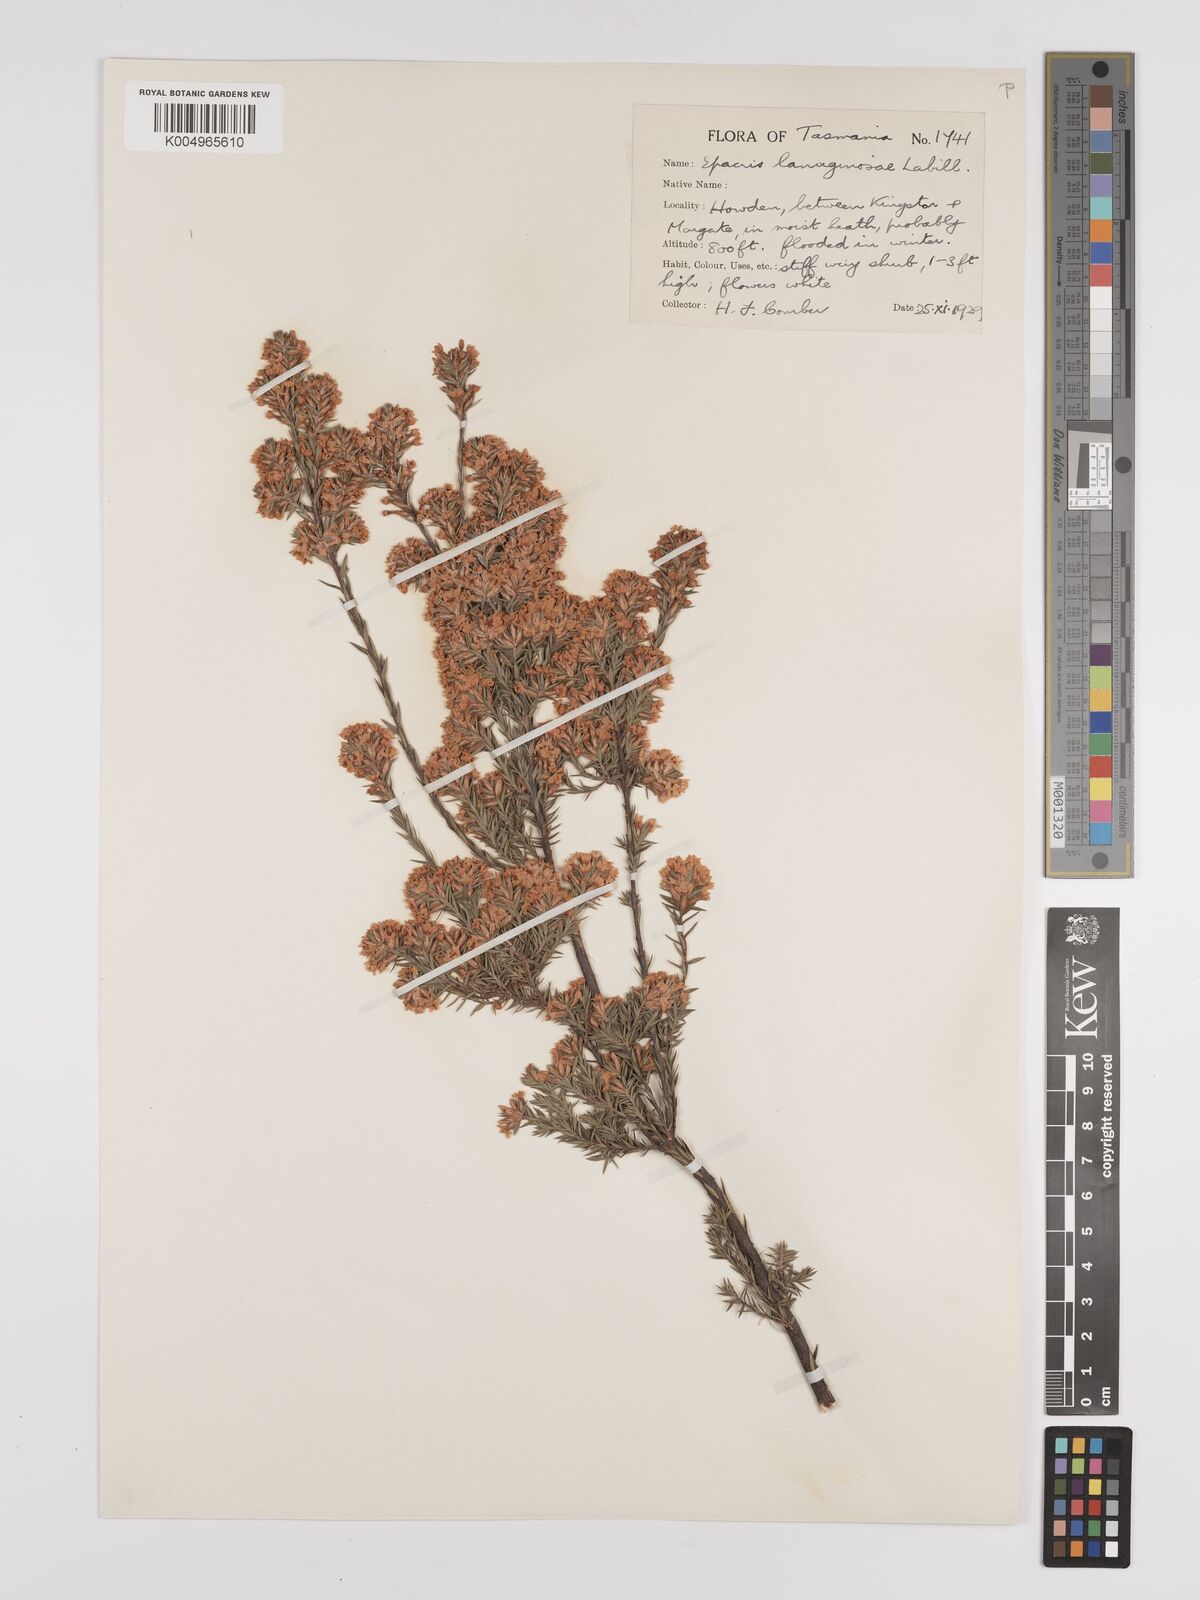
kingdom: Plantae
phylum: Tracheophyta
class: Magnoliopsida
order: Ericales
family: Ericaceae
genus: Epacris
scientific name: Epacris lanuginosa
